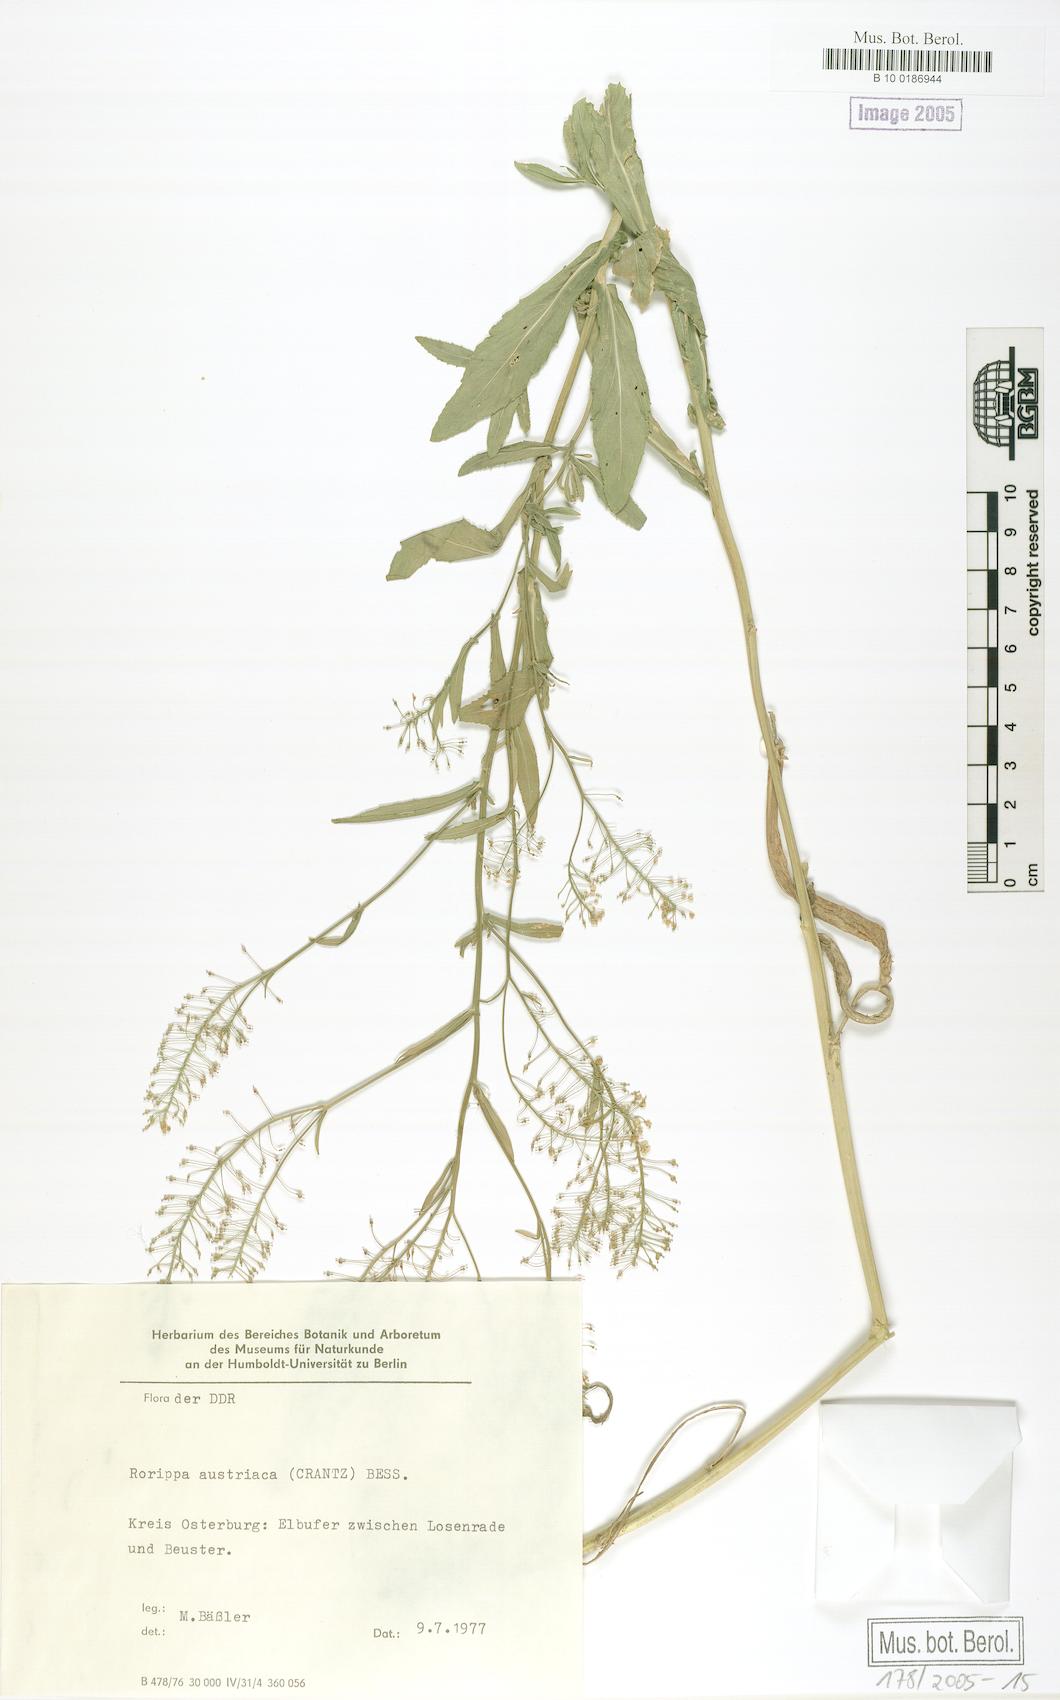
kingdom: Plantae
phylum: Tracheophyta
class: Magnoliopsida
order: Brassicales
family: Brassicaceae
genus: Rorippa
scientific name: Rorippa austriaca
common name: Austrian yellow-cress
